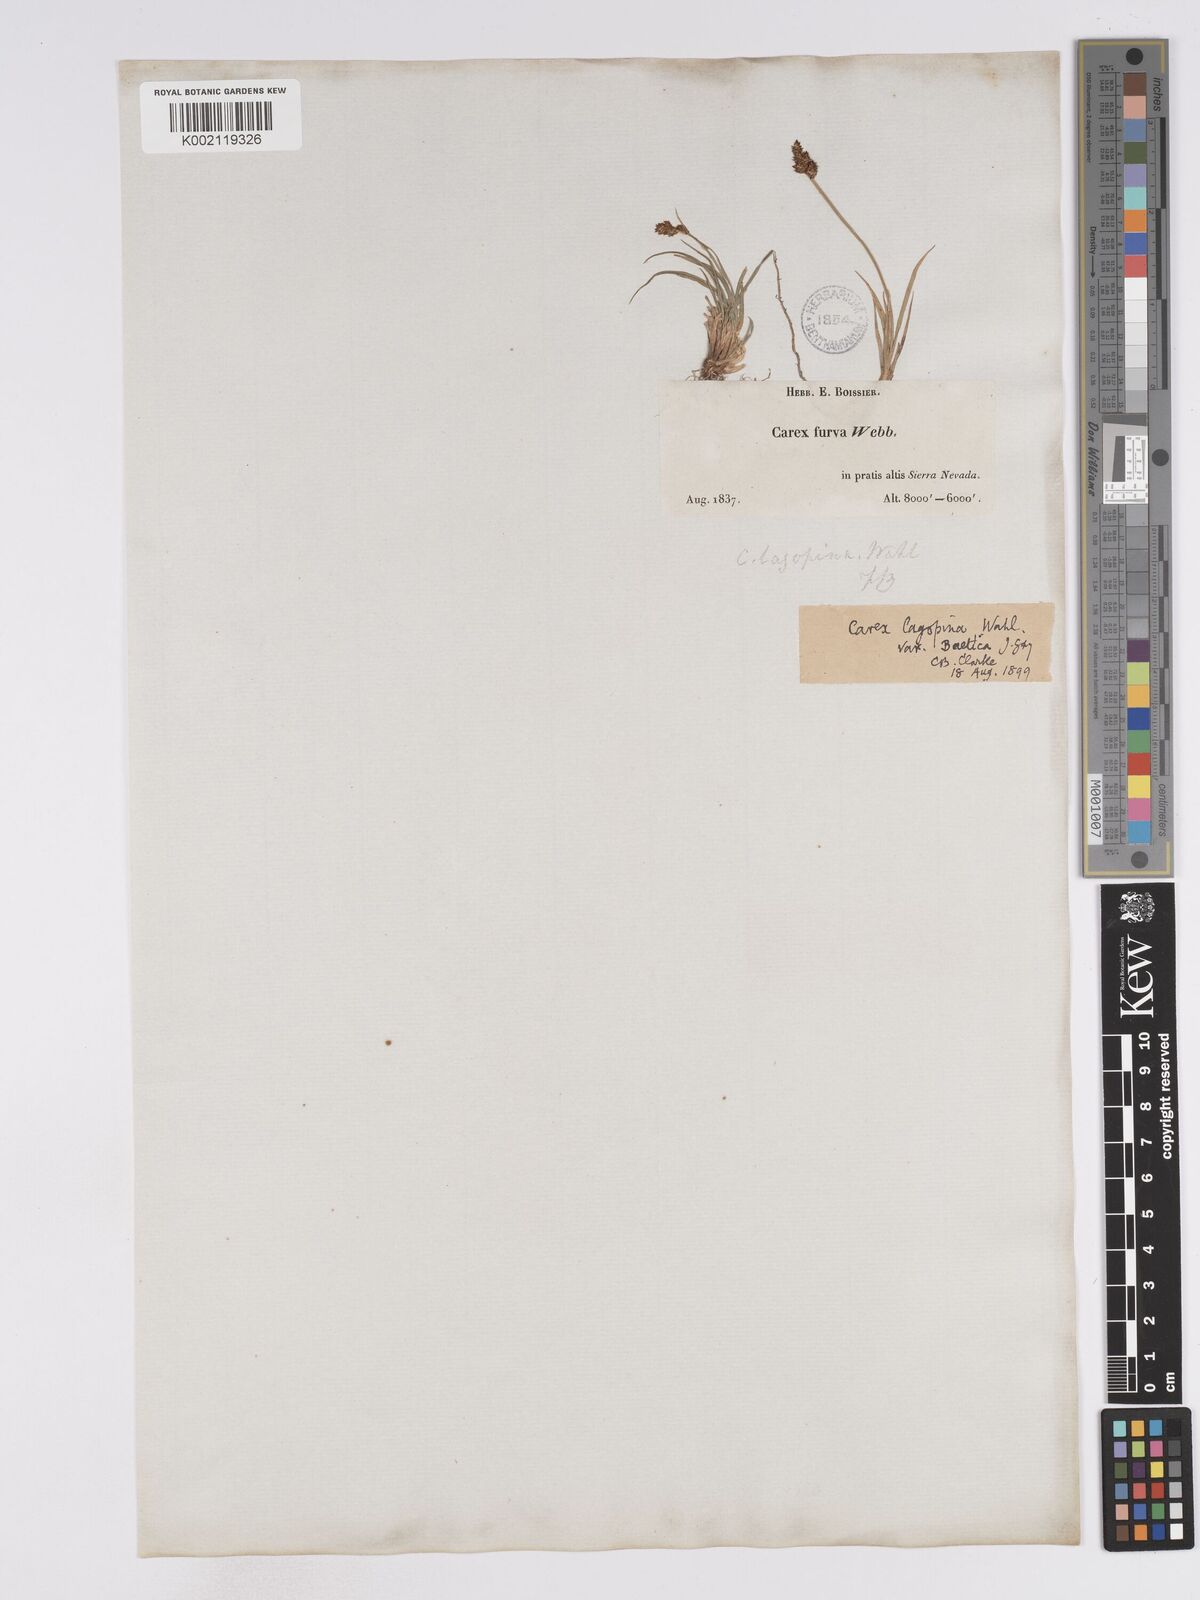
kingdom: Plantae
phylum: Tracheophyta
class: Liliopsida
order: Poales
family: Cyperaceae
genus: Carex
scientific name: Carex furva
